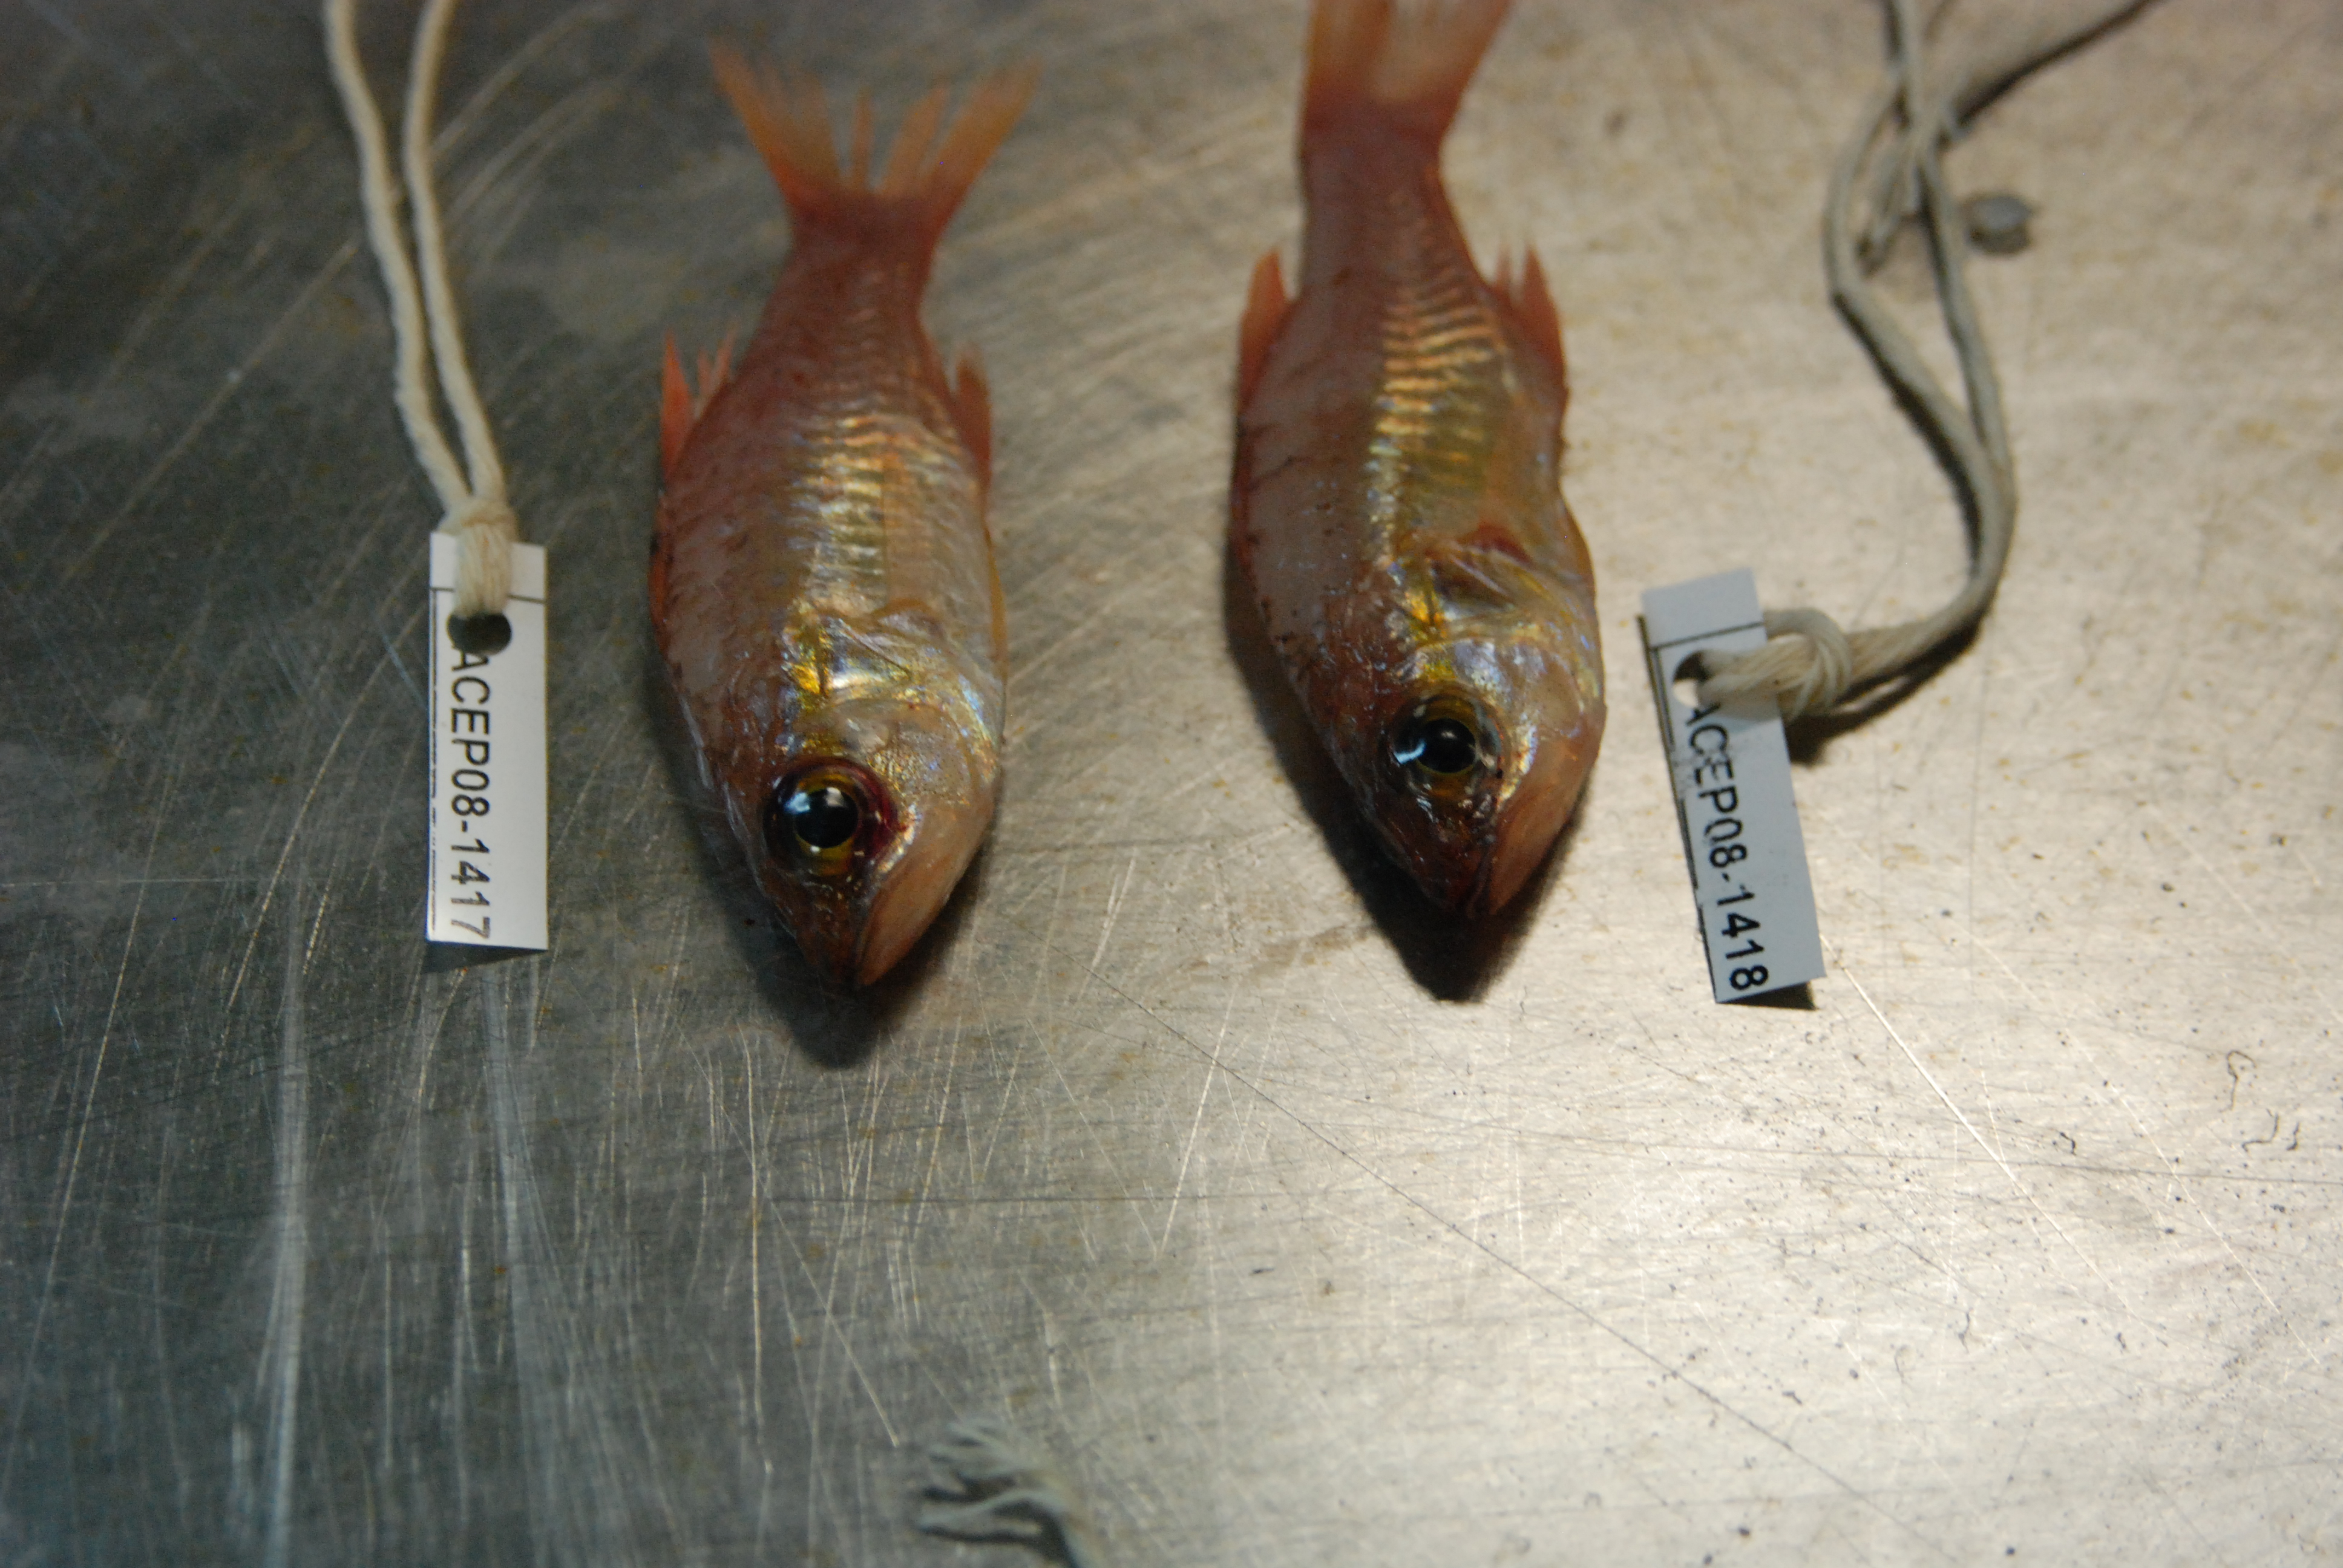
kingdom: Animalia
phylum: Chordata
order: Perciformes
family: Apogonidae
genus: Ostorhinchus
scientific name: Ostorhinchus apogonoides
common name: Goldbelly cardinalfish
